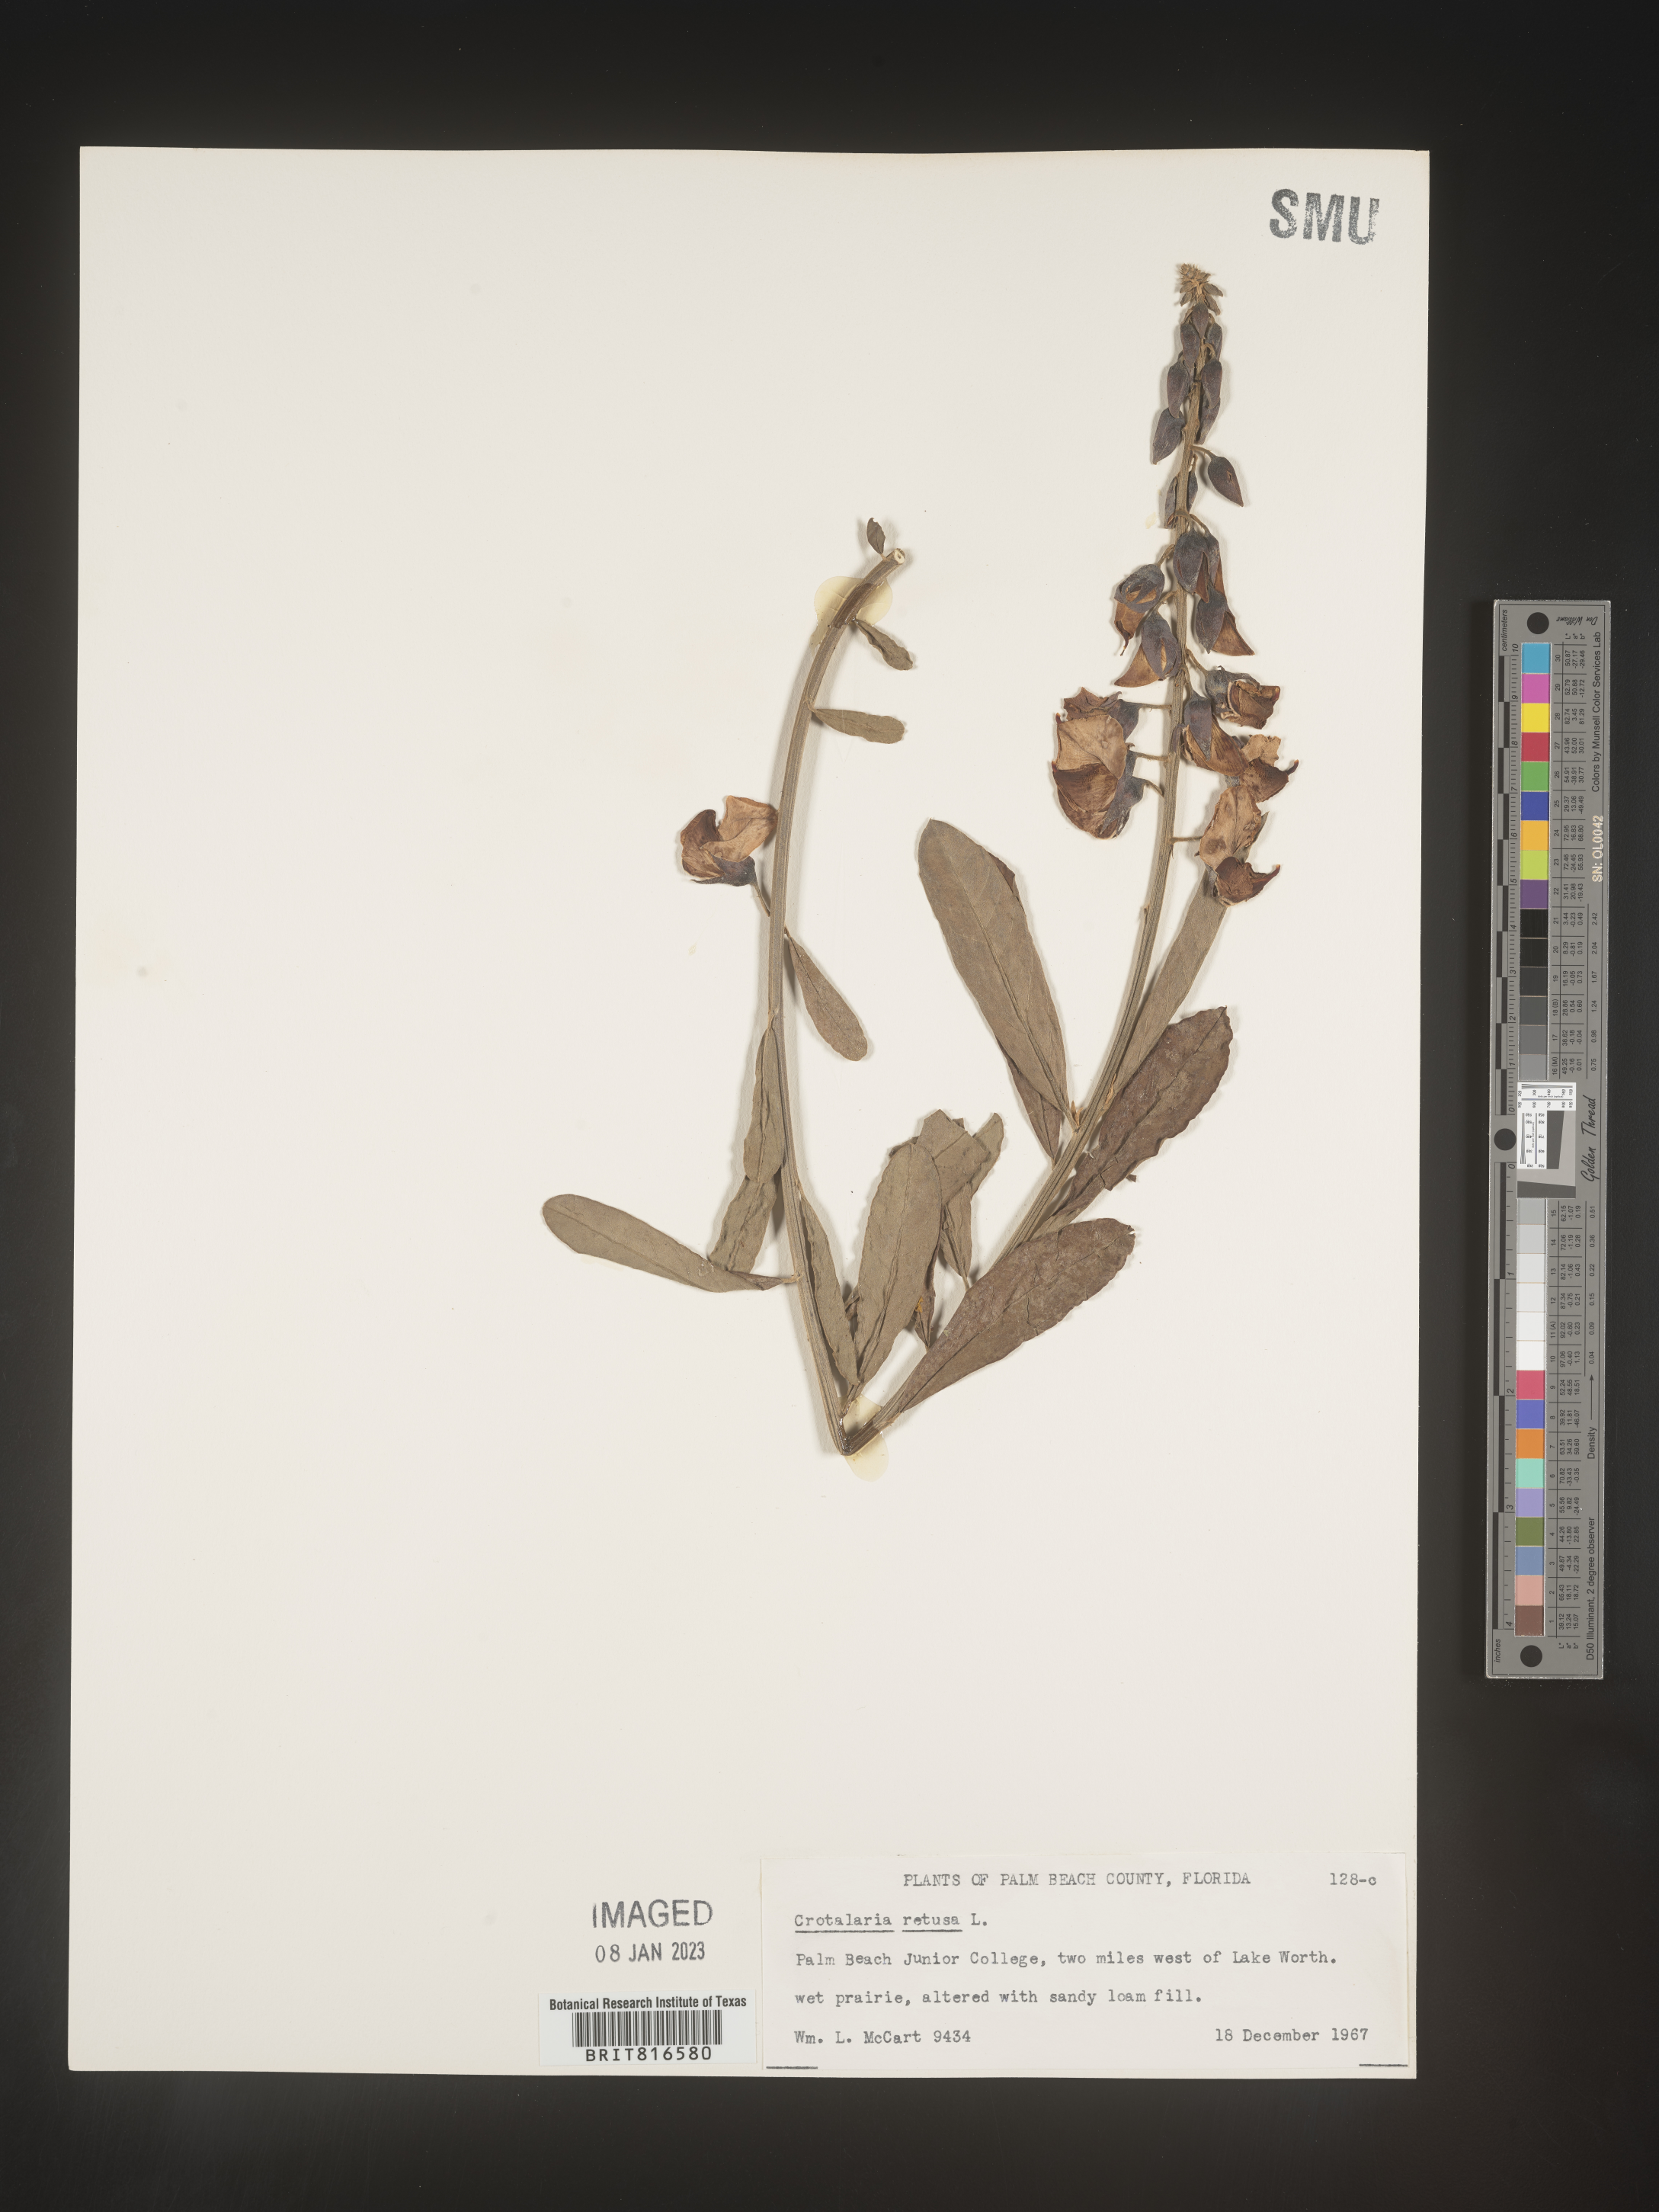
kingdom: Plantae
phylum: Tracheophyta
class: Magnoliopsida
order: Fabales
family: Fabaceae
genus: Crotalaria
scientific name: Crotalaria retusa
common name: Rattleweed
